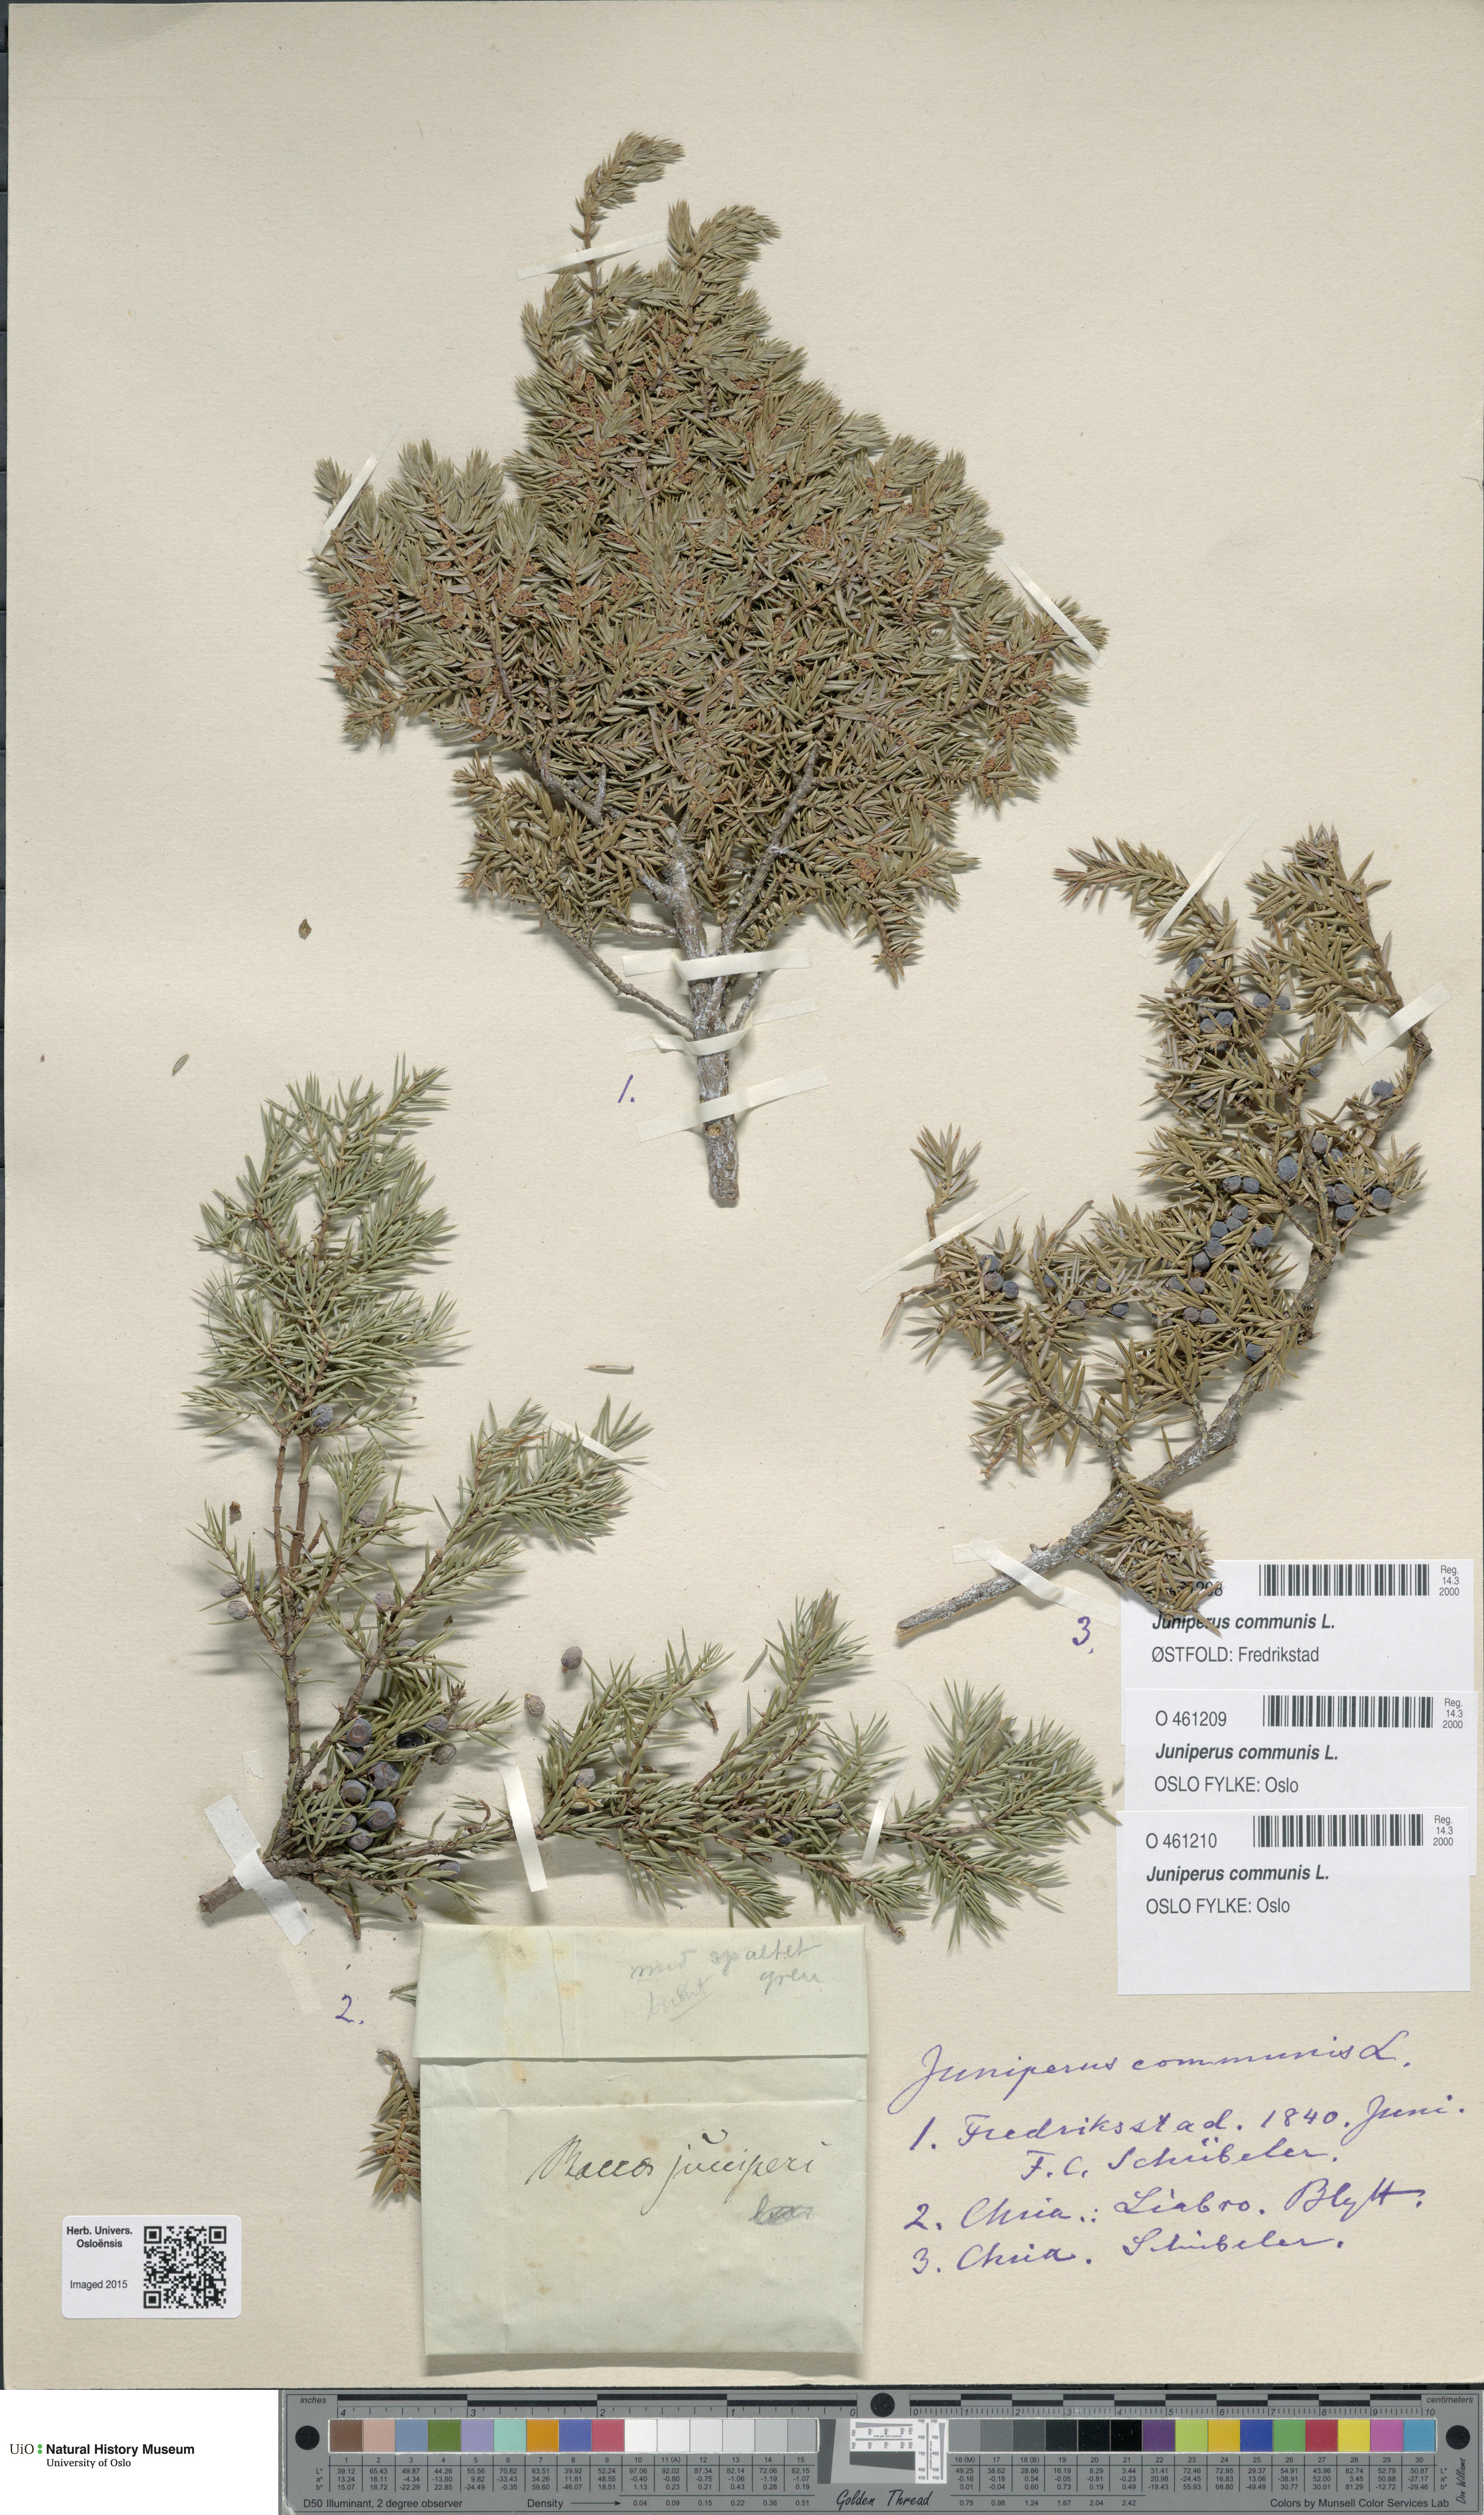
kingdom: Plantae
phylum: Tracheophyta
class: Pinopsida
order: Pinales
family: Cupressaceae
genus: Juniperus
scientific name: Juniperus communis
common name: Common juniper
